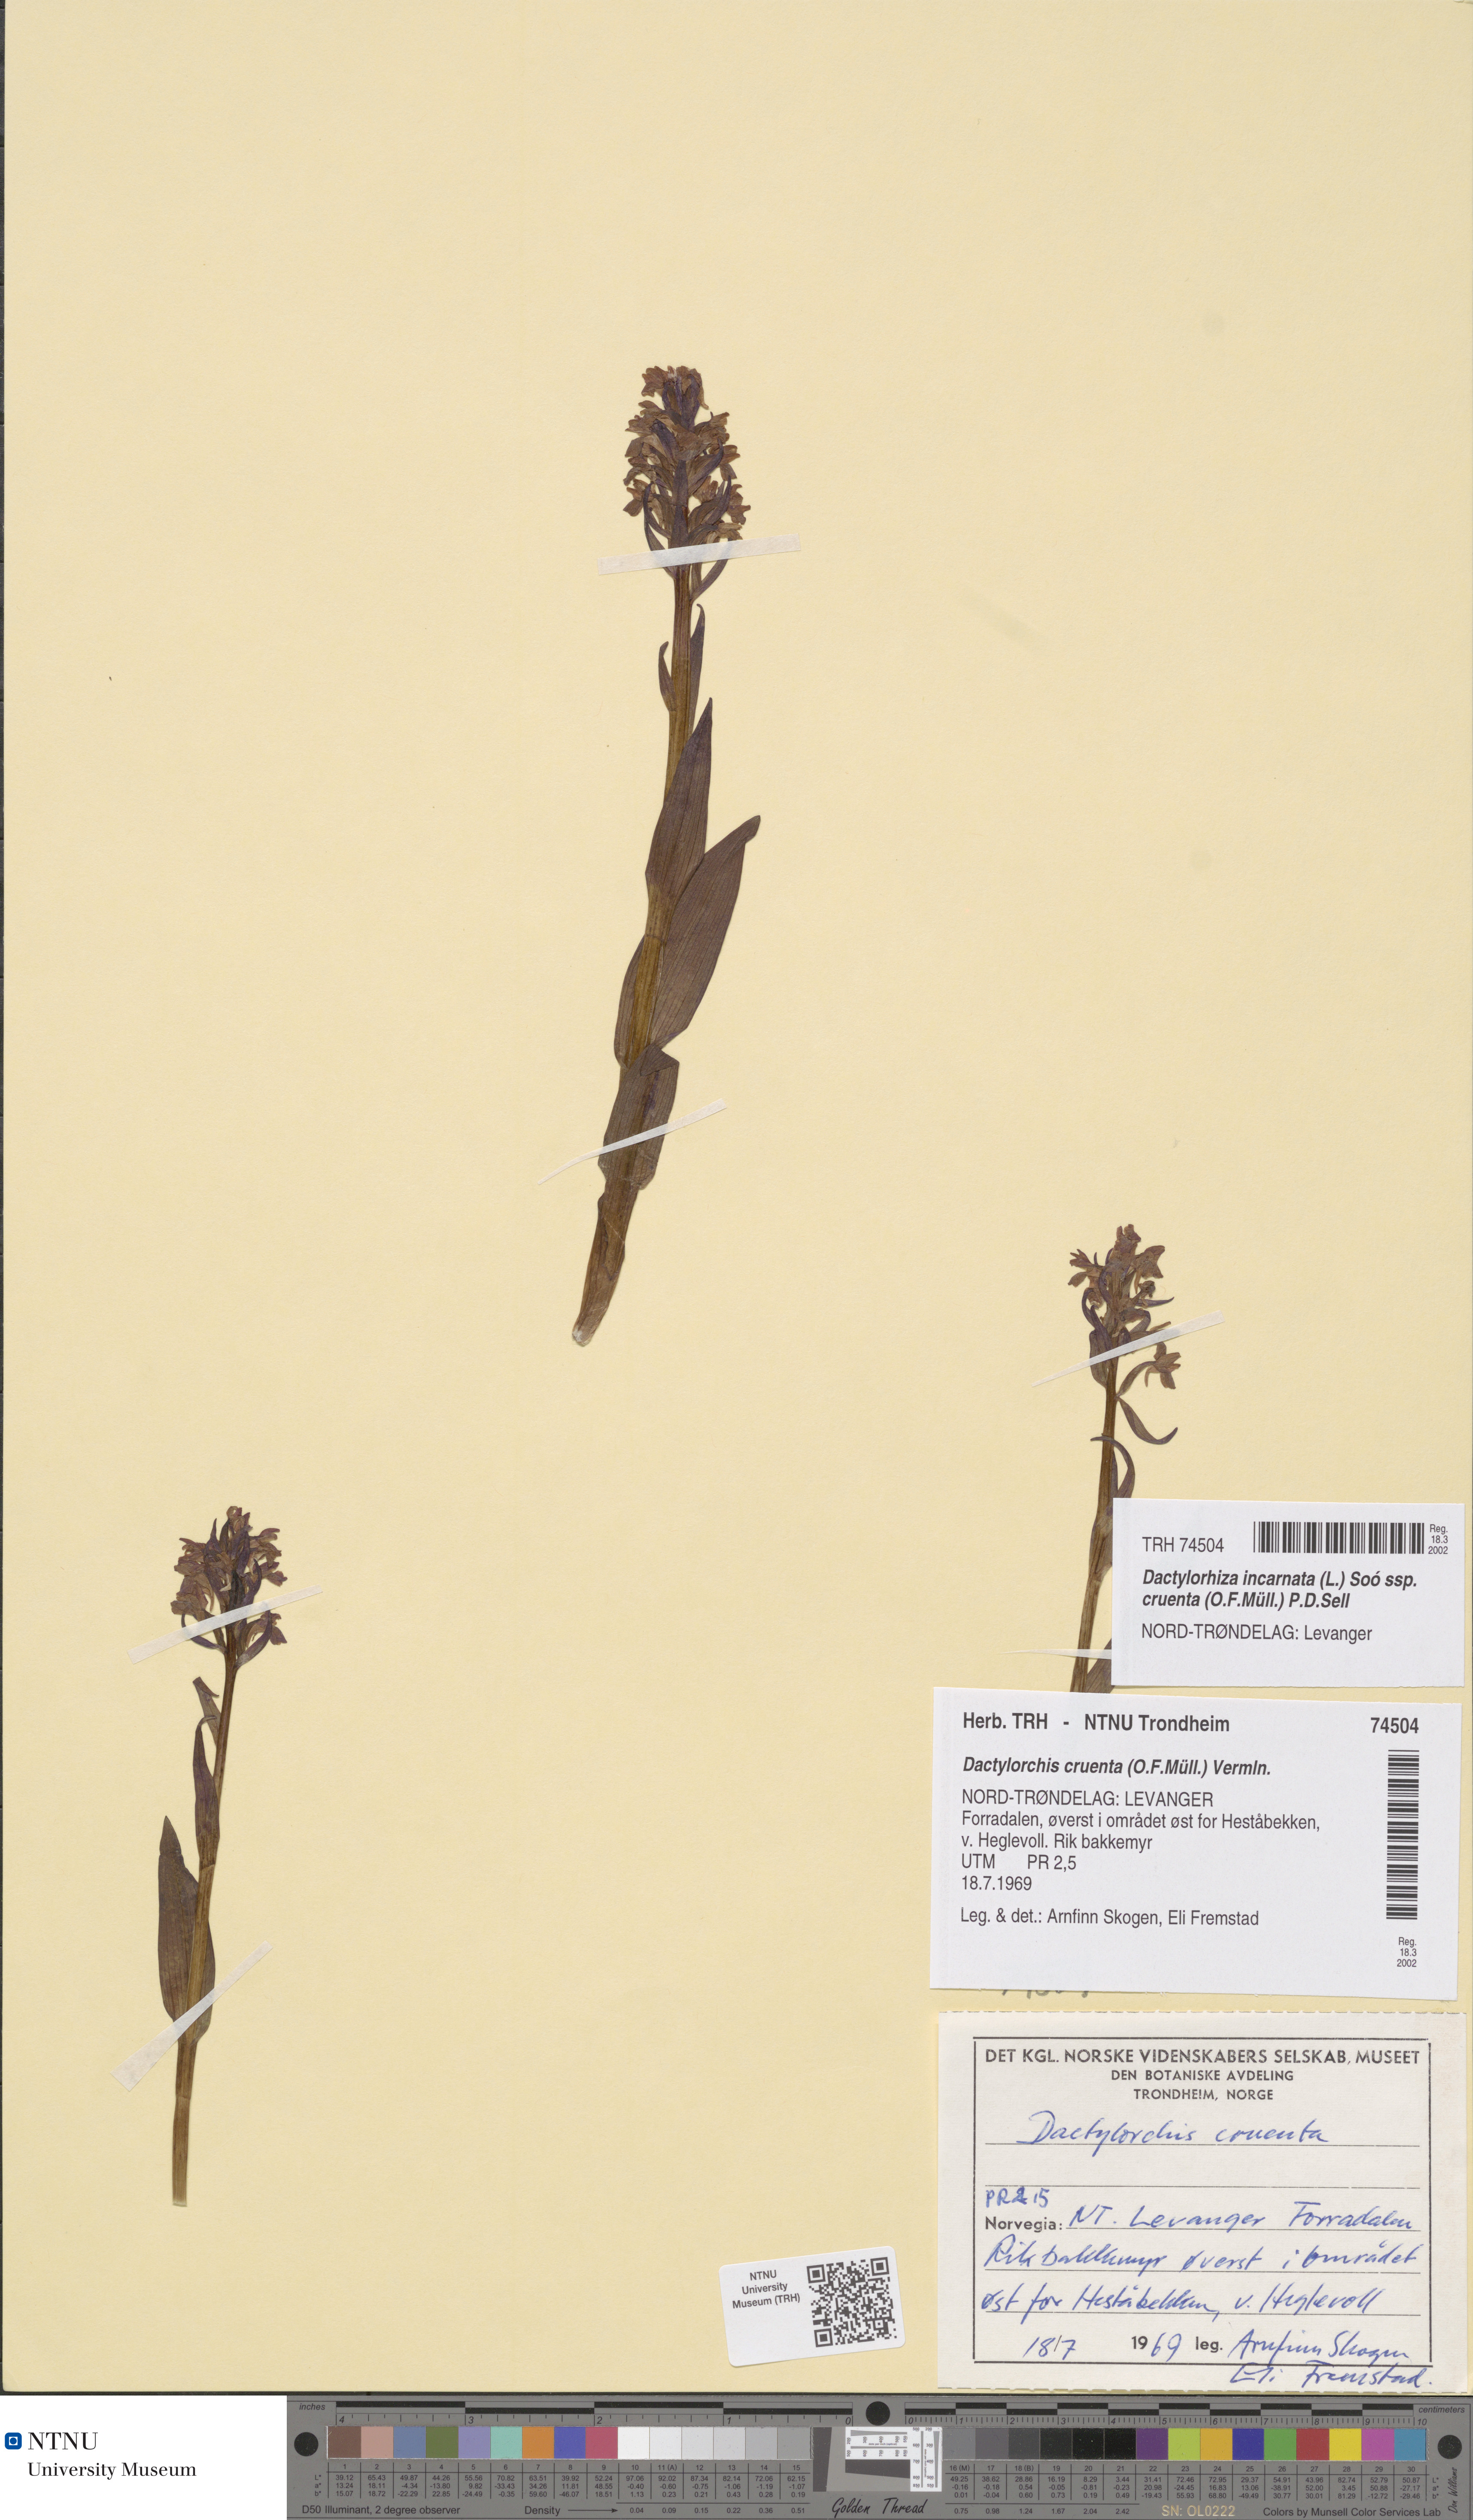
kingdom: Plantae
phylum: Tracheophyta
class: Liliopsida
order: Asparagales
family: Orchidaceae
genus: Dactylorhiza
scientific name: Dactylorhiza incarnata
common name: Early marsh-orchid
